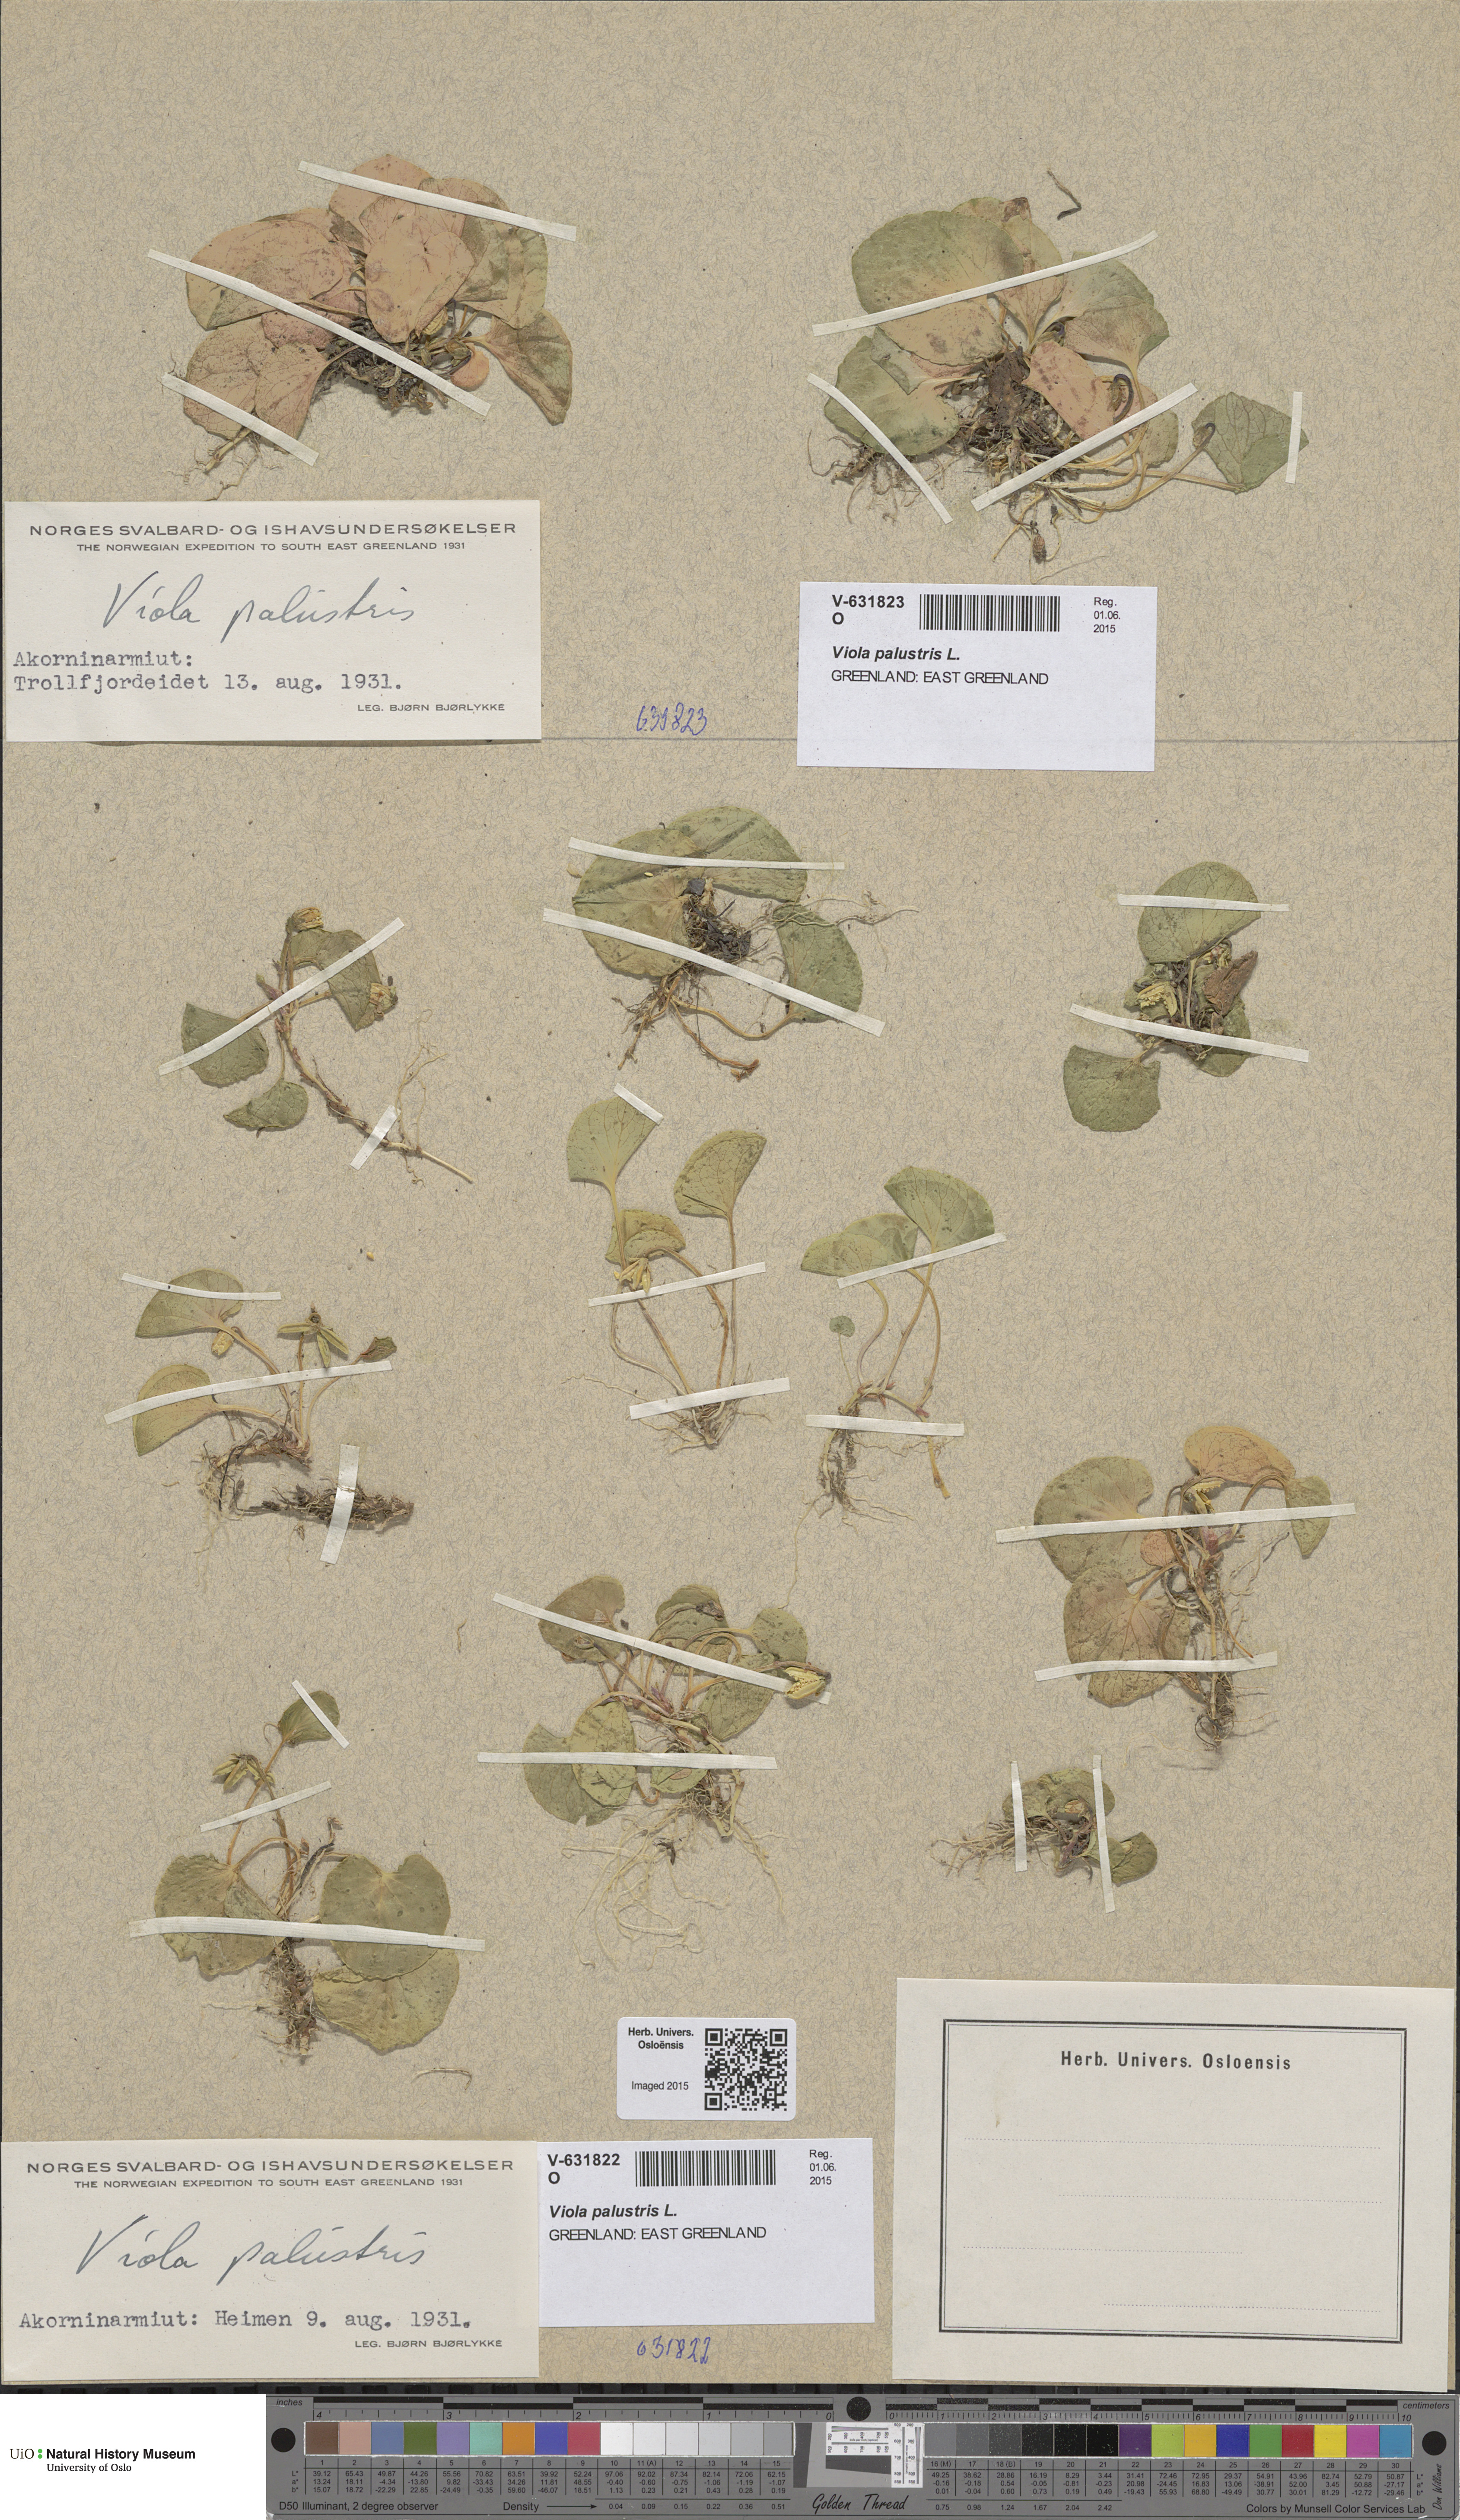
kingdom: Plantae
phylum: Tracheophyta
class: Magnoliopsida
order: Malpighiales
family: Violaceae
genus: Viola
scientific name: Viola palustris
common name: Marsh violet
